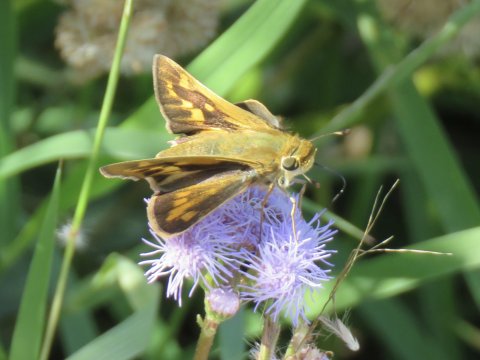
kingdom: Animalia
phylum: Arthropoda
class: Insecta
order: Lepidoptera
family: Hesperiidae
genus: Hylephila
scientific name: Hylephila phyleus
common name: Fiery Skipper
